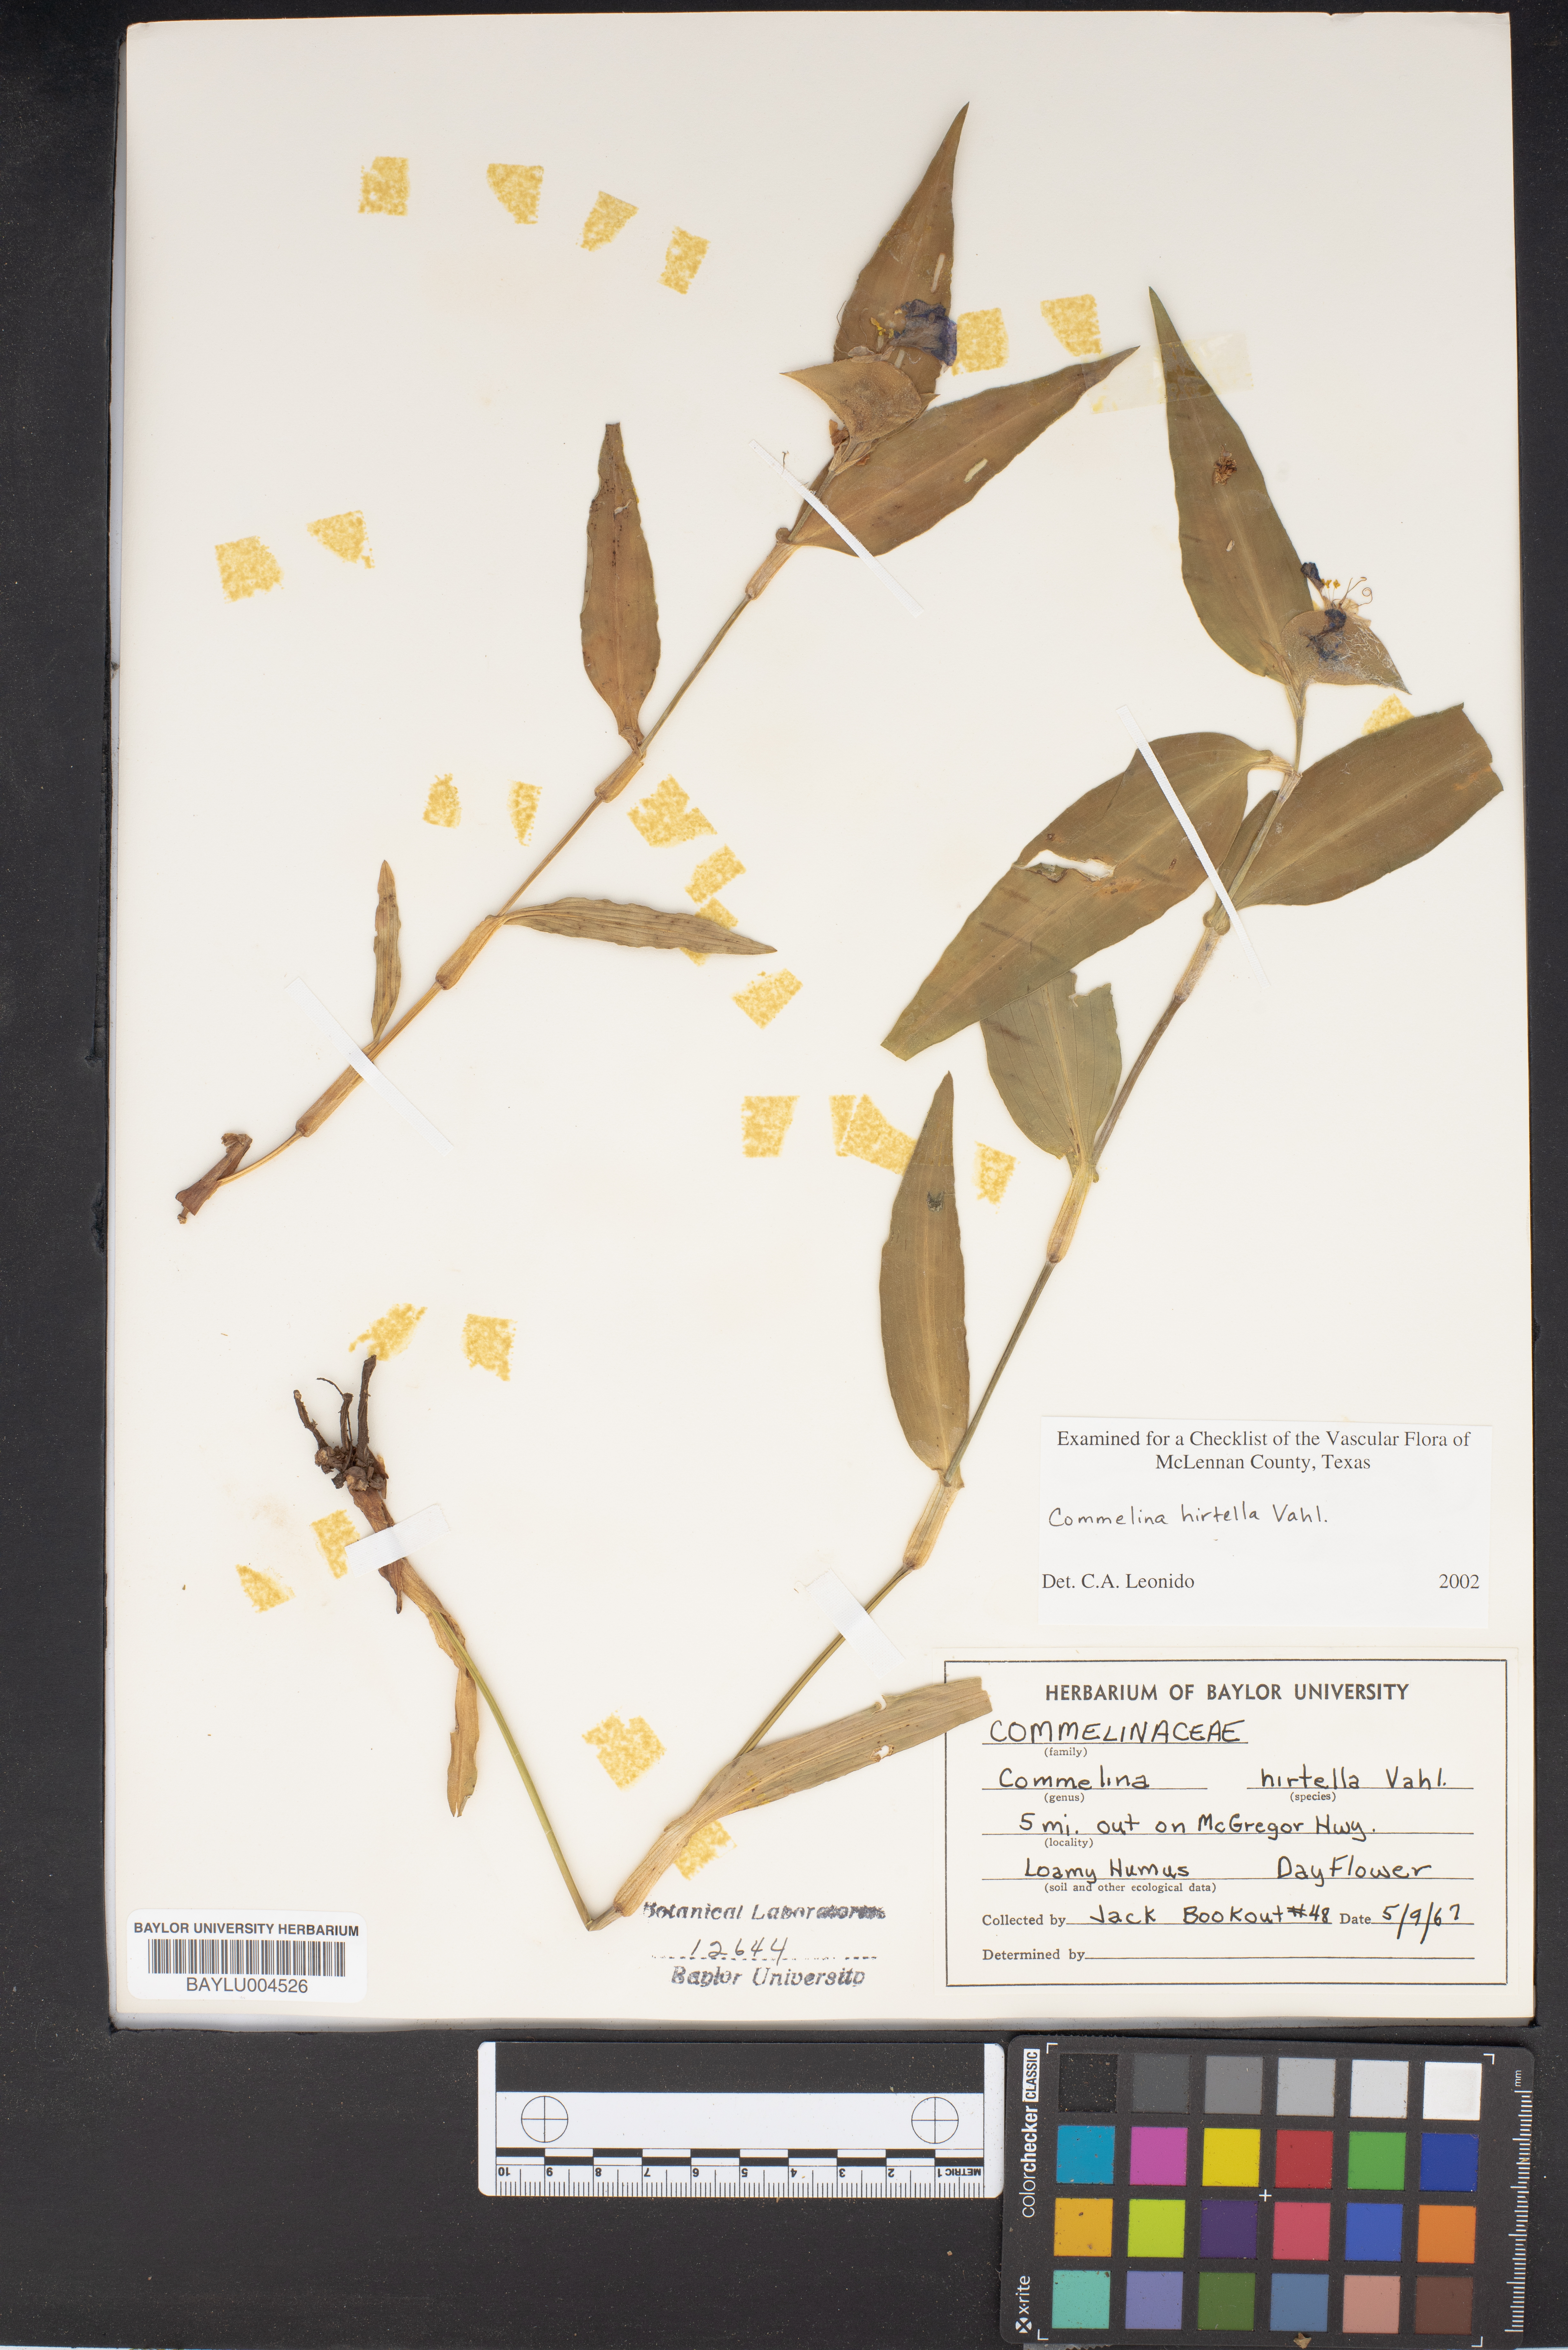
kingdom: Plantae
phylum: Tracheophyta
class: Liliopsida
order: Commelinales
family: Commelinaceae
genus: Commelina
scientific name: Commelina virginica
